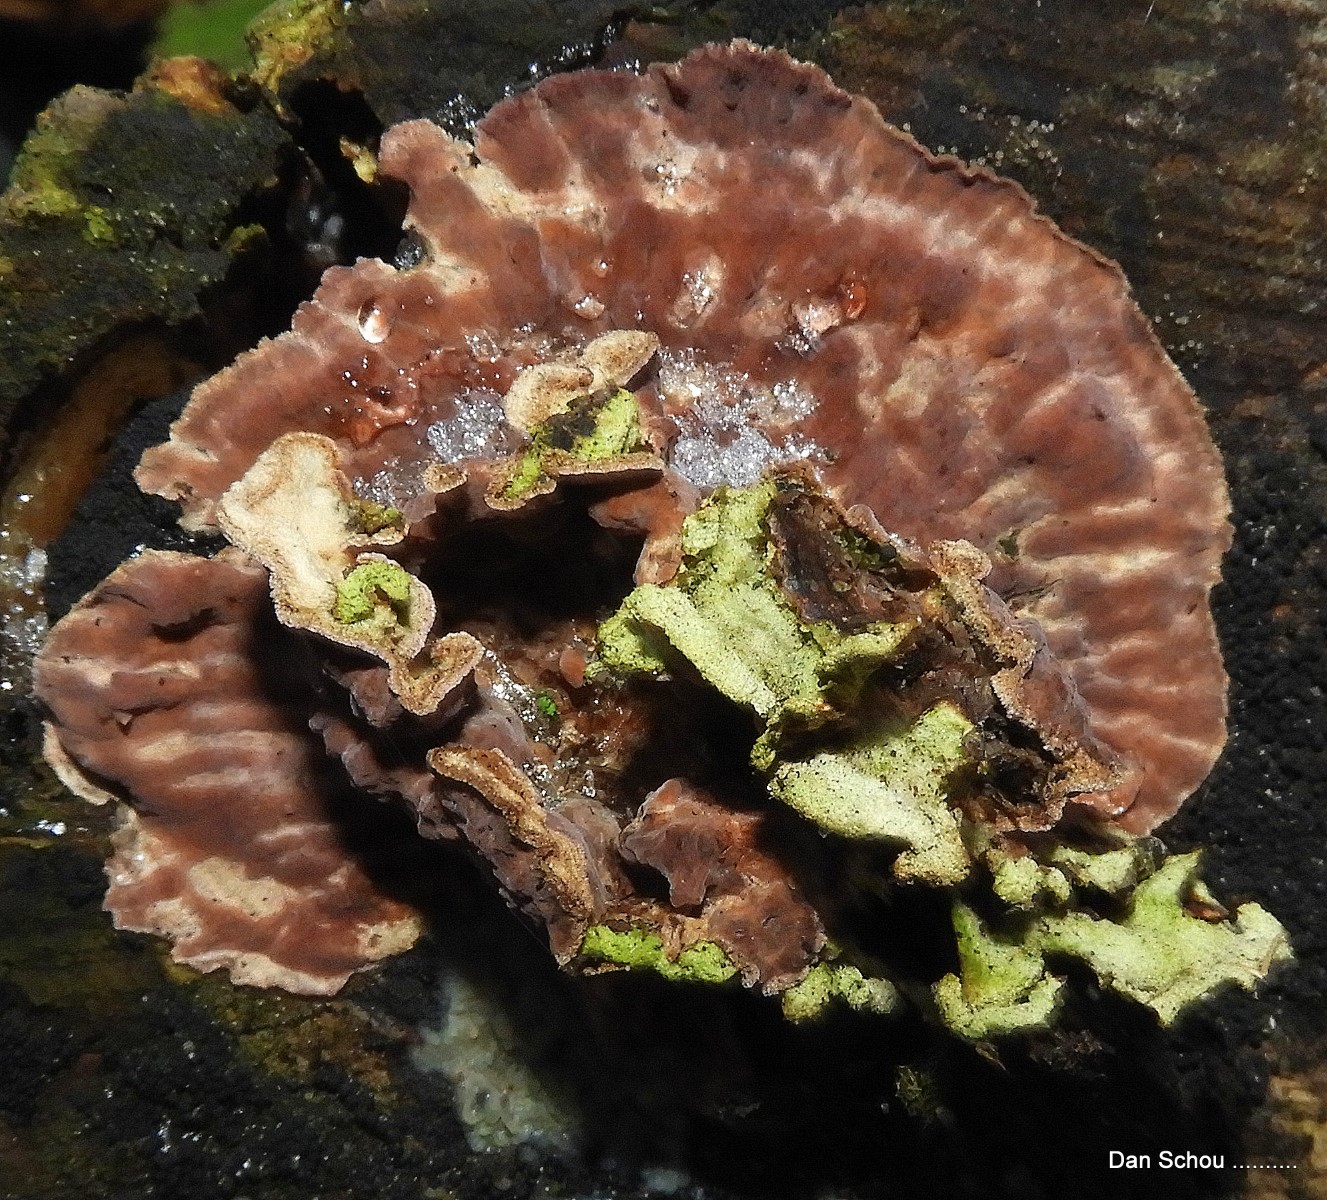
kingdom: Fungi
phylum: Basidiomycota
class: Agaricomycetes
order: Agaricales
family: Cyphellaceae
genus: Chondrostereum
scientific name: Chondrostereum purpureum
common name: purpurlædersvamp
